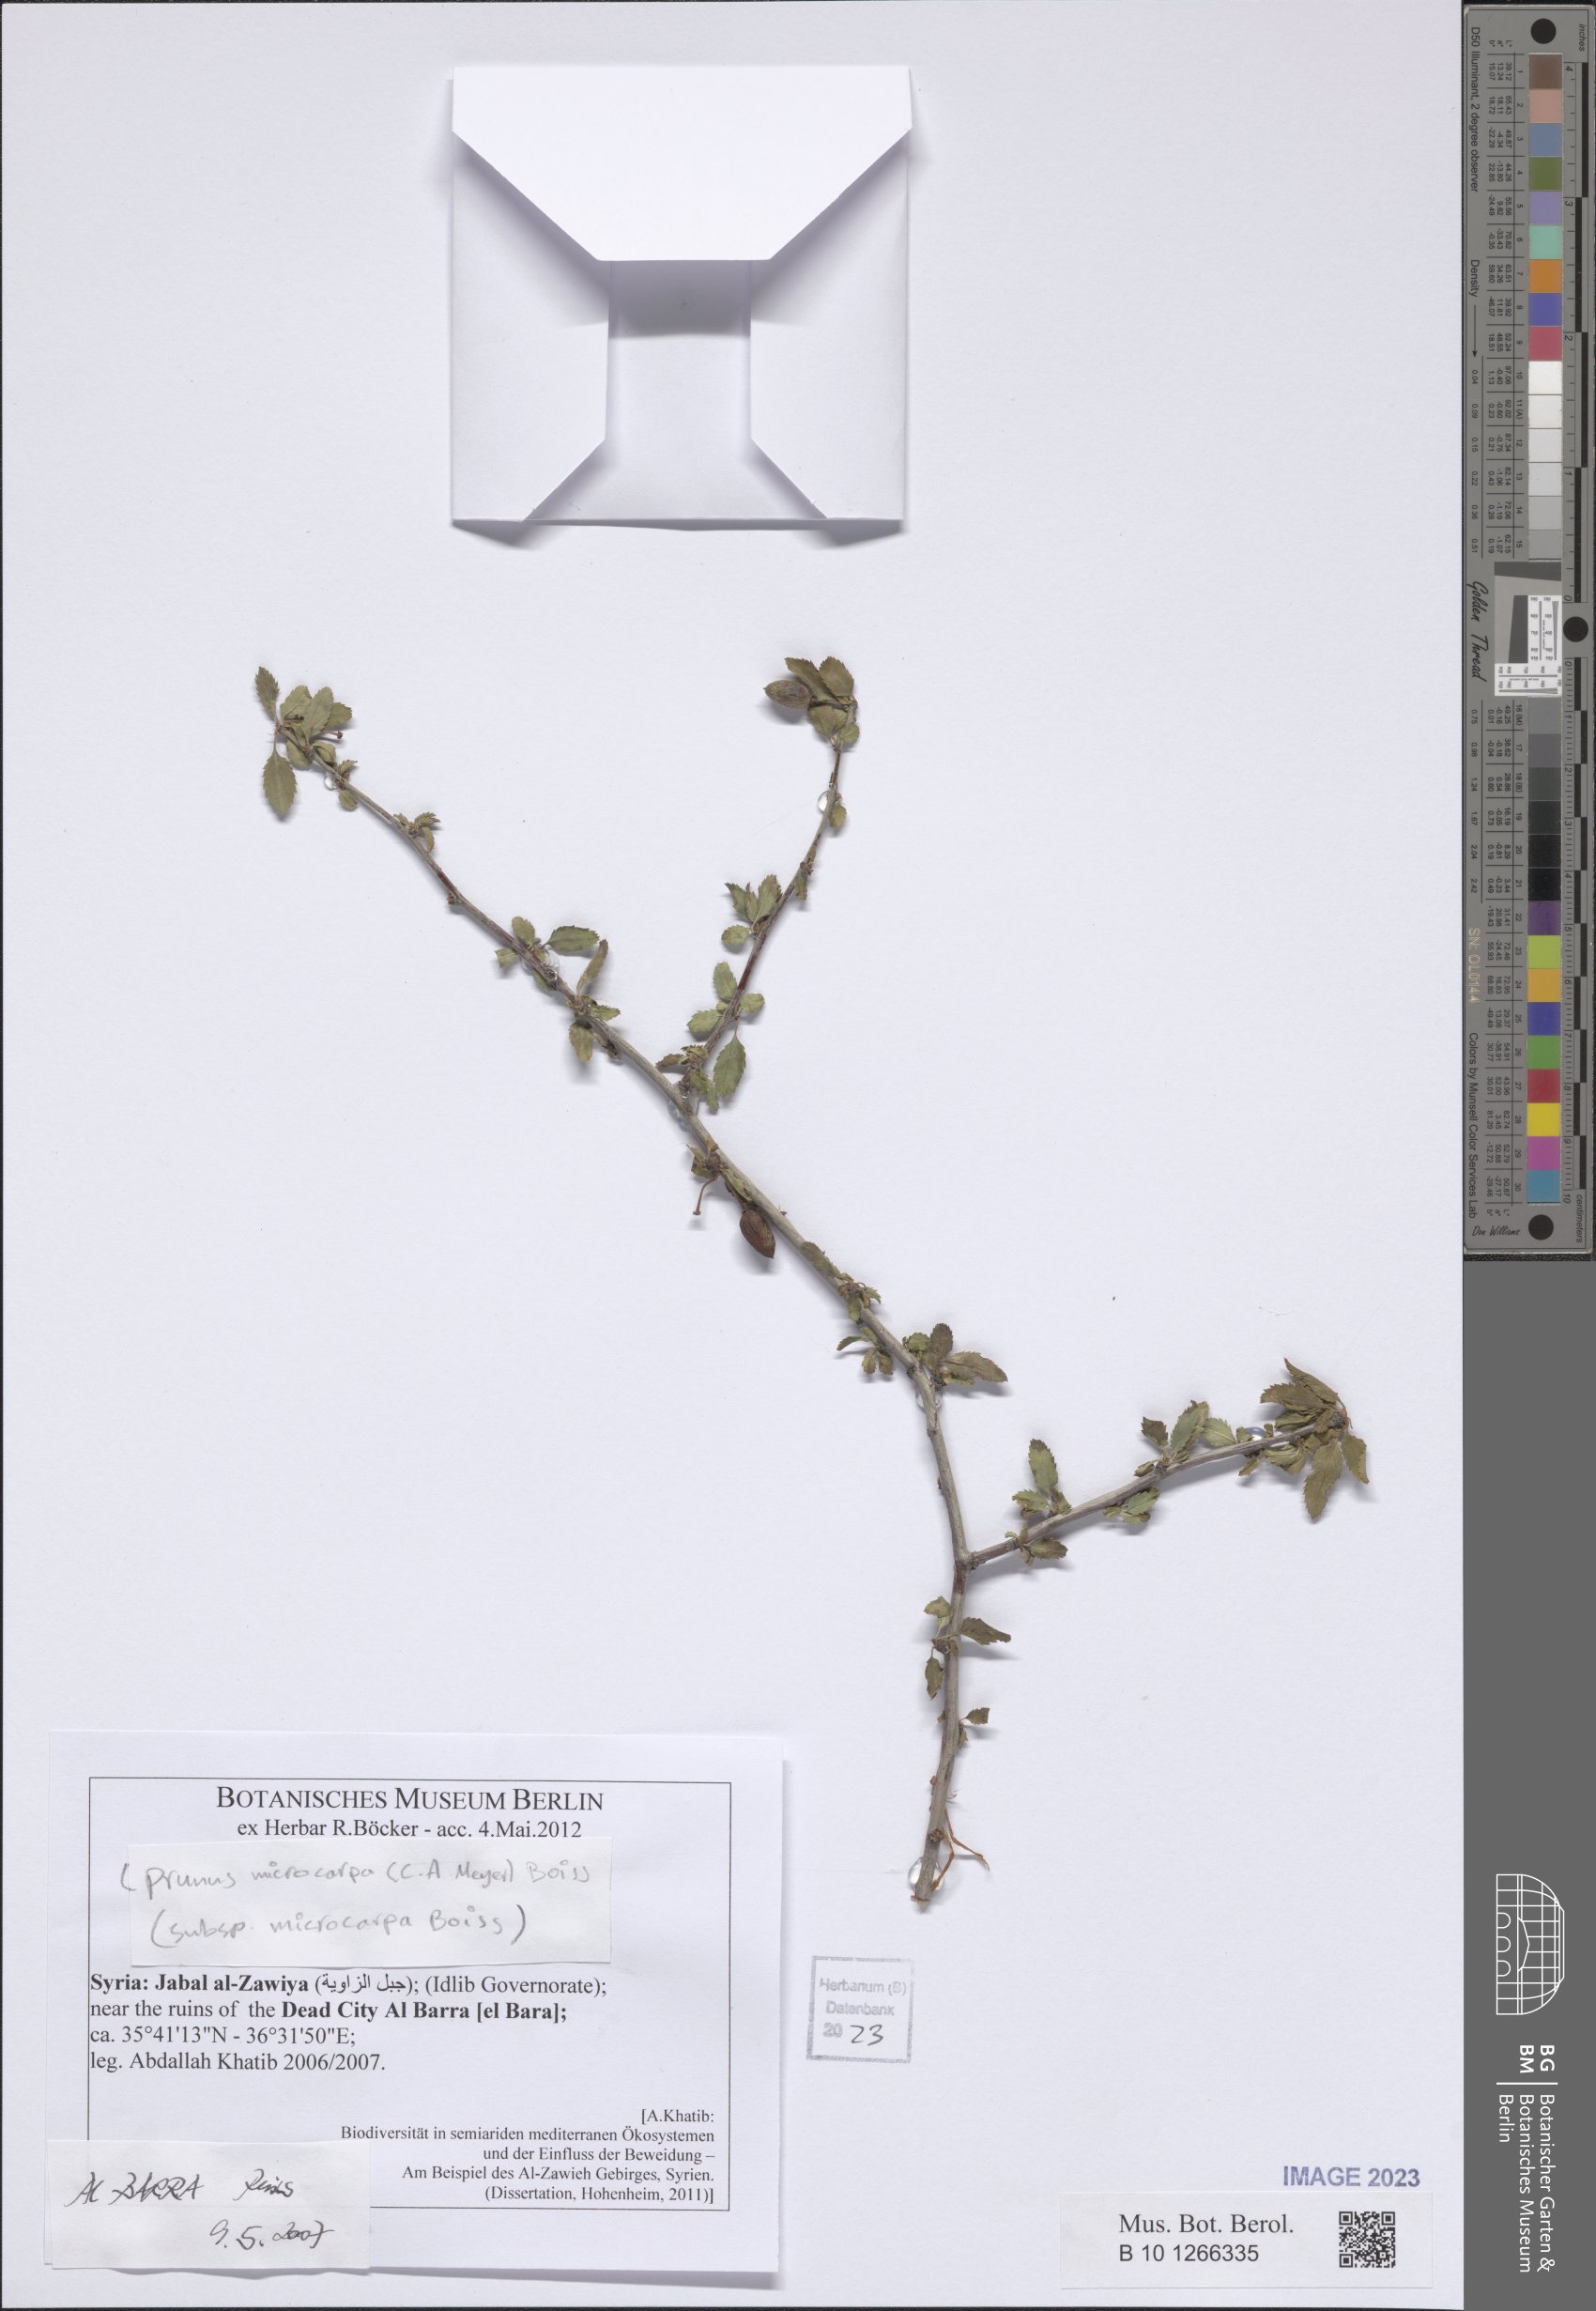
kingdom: Plantae
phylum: Tracheophyta
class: Magnoliopsida
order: Rosales
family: Rosaceae
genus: Prunus
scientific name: Prunus microcarpa
